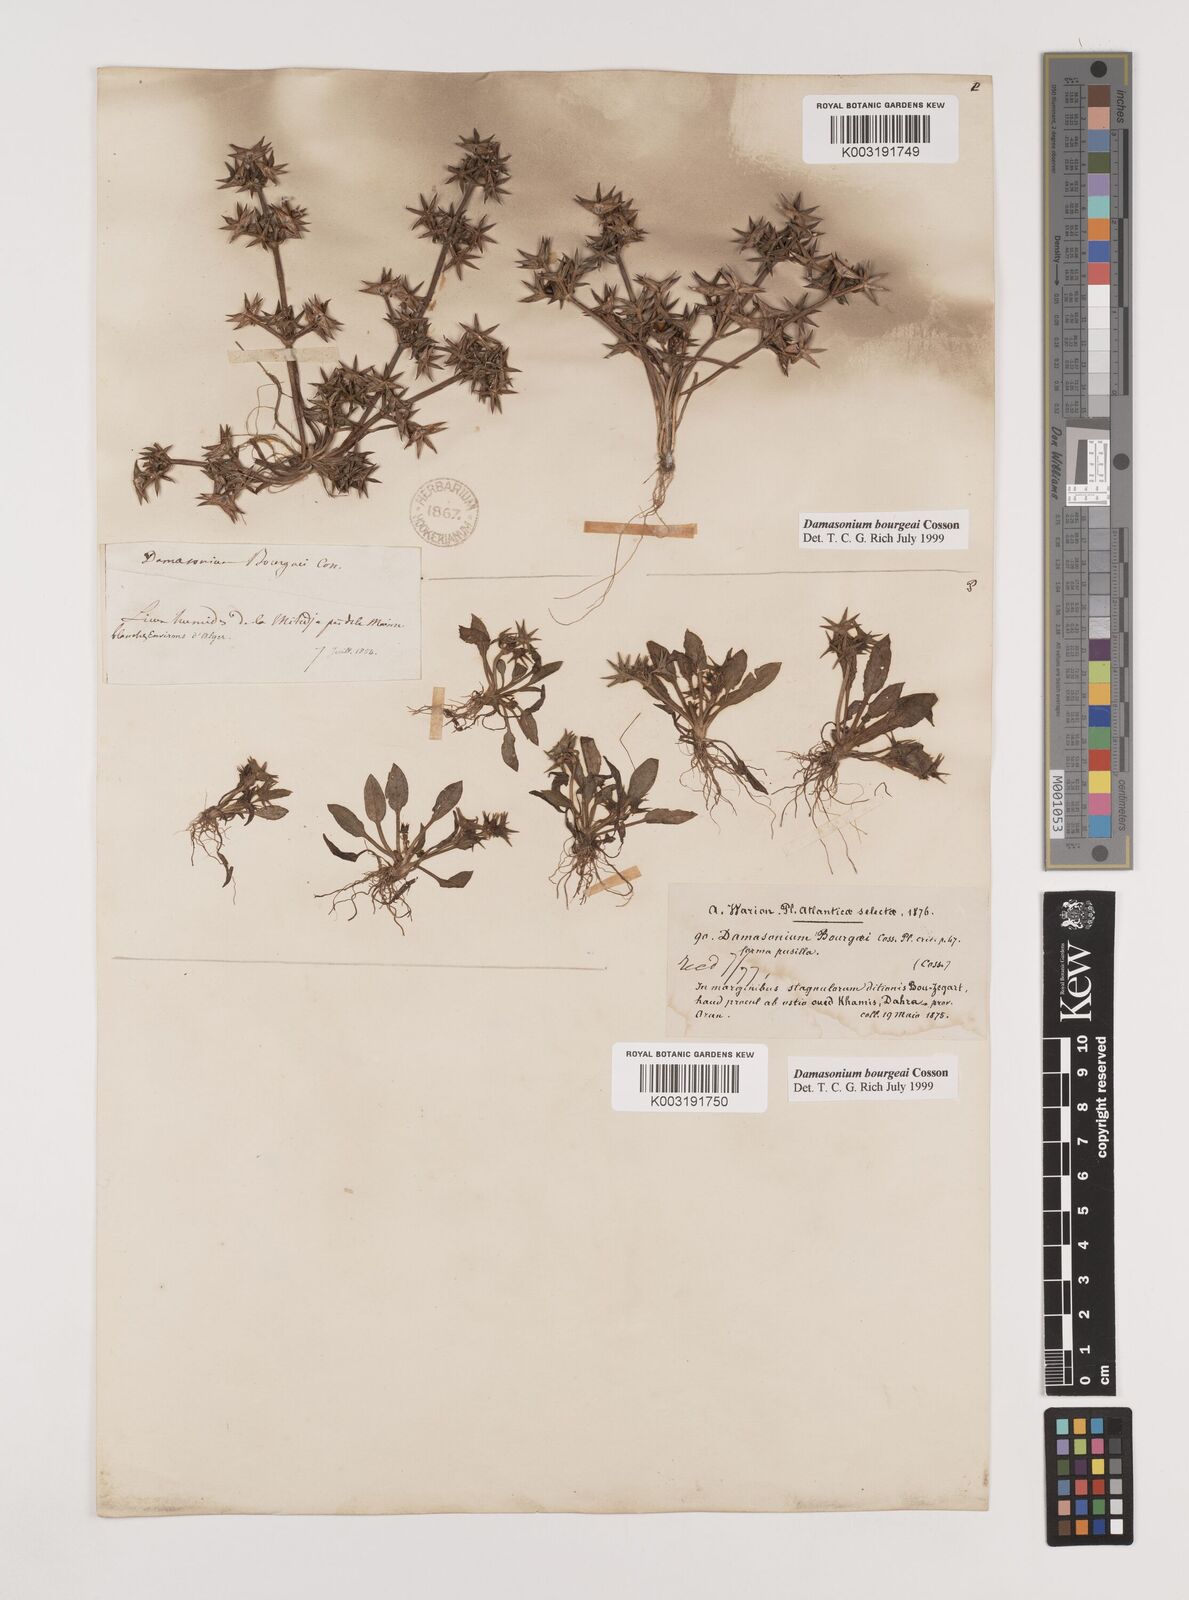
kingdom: Plantae
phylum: Tracheophyta
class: Liliopsida
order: Alismatales
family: Alismataceae
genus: Damasonium
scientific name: Damasonium bourgaei
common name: Starfruit
